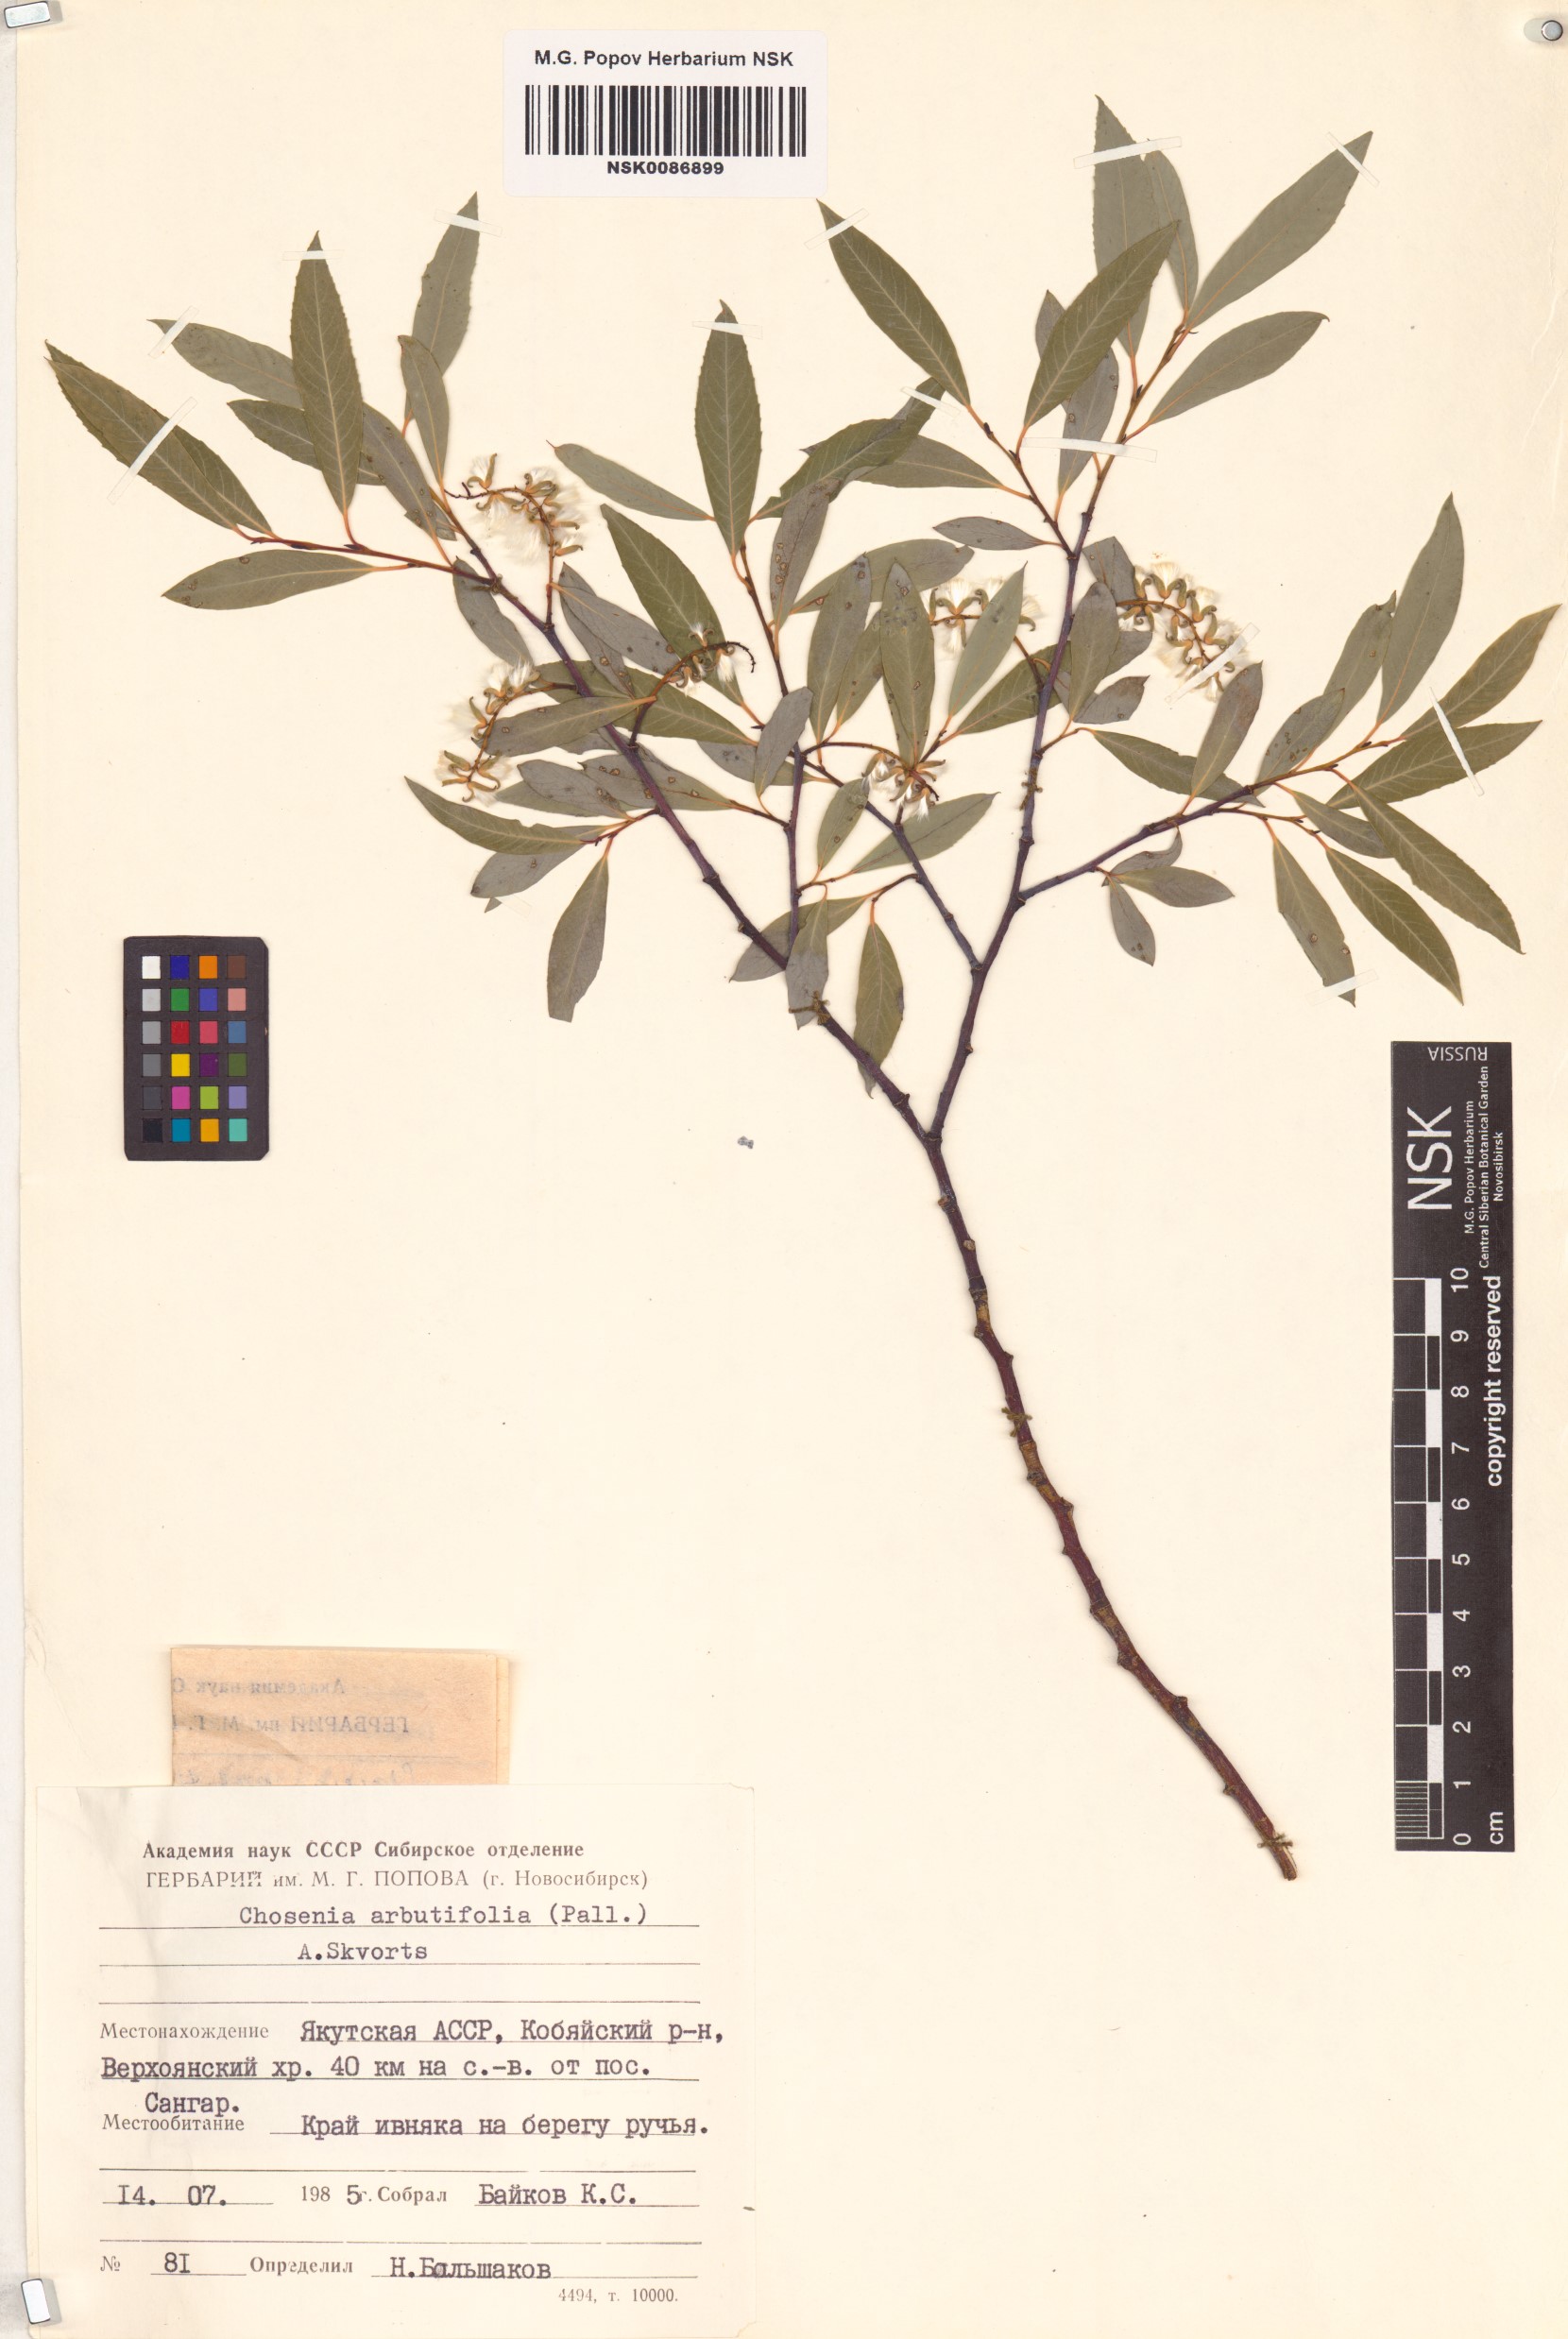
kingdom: Plantae
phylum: Tracheophyta
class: Magnoliopsida
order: Malpighiales
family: Salicaceae
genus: Chosenia
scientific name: Chosenia arbutifolia
